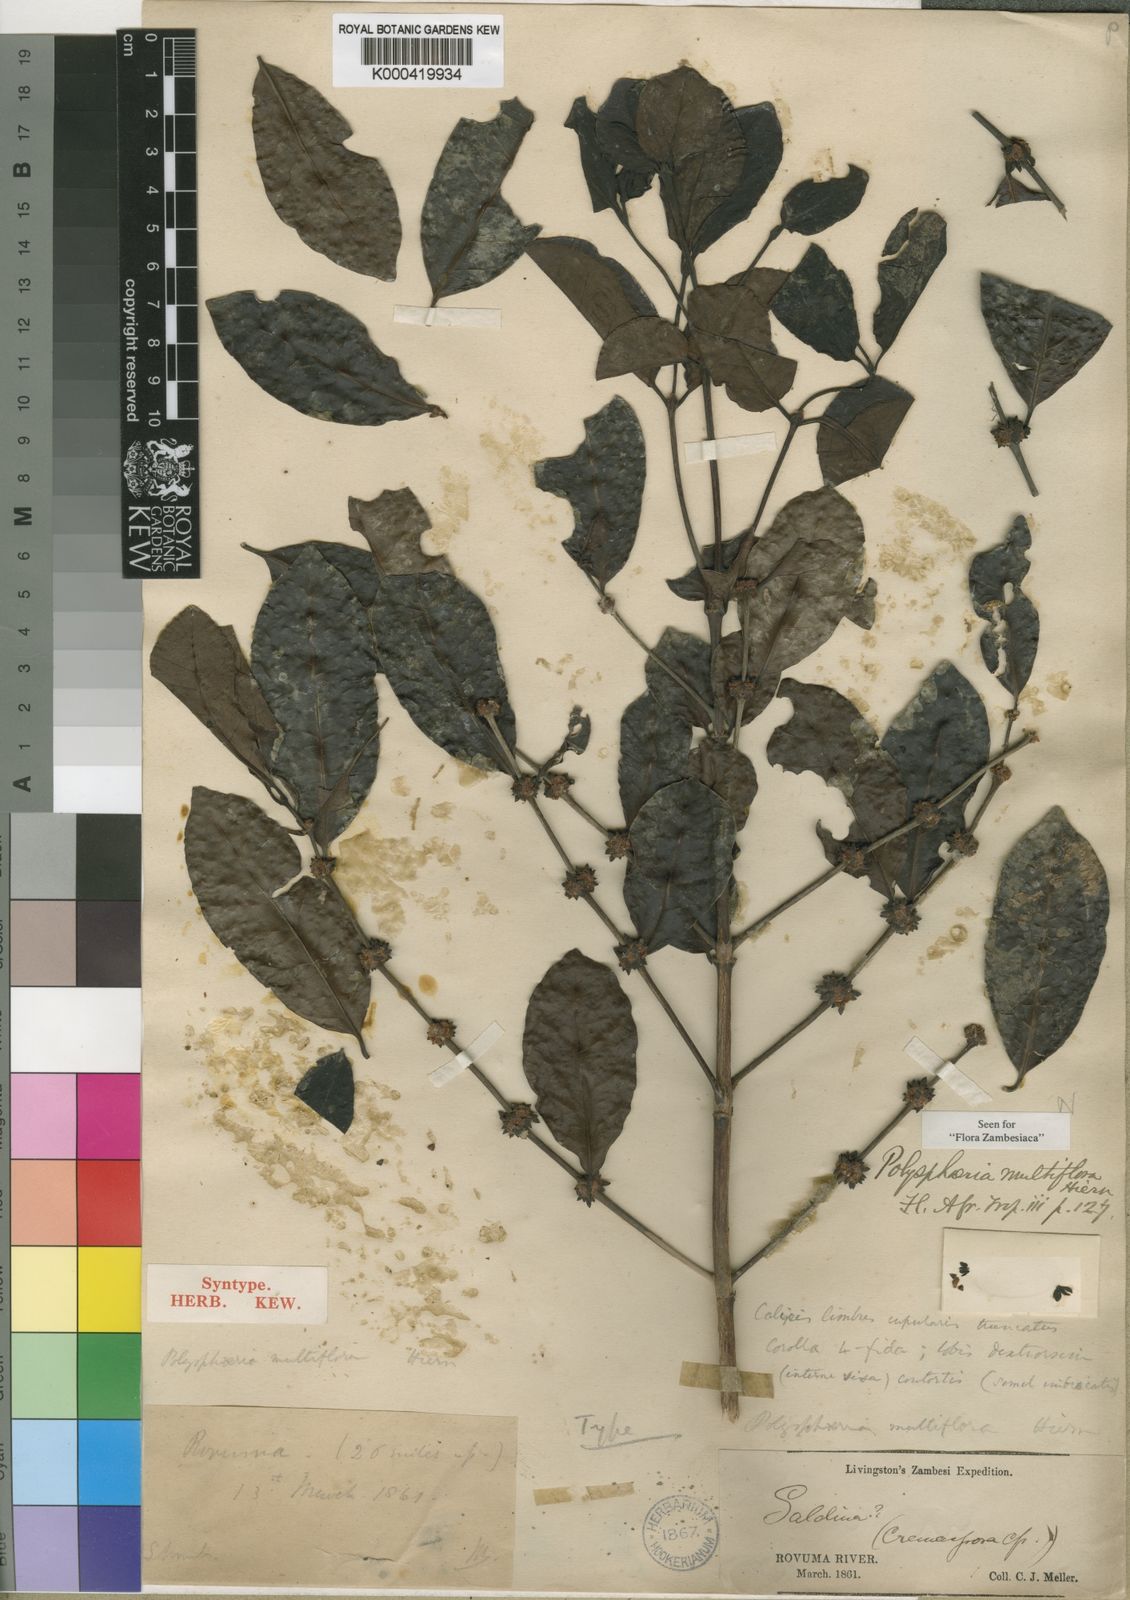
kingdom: Plantae
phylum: Tracheophyta
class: Magnoliopsida
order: Gentianales
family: Rubiaceae
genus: Polysphaeria
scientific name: Polysphaeria multiflora
